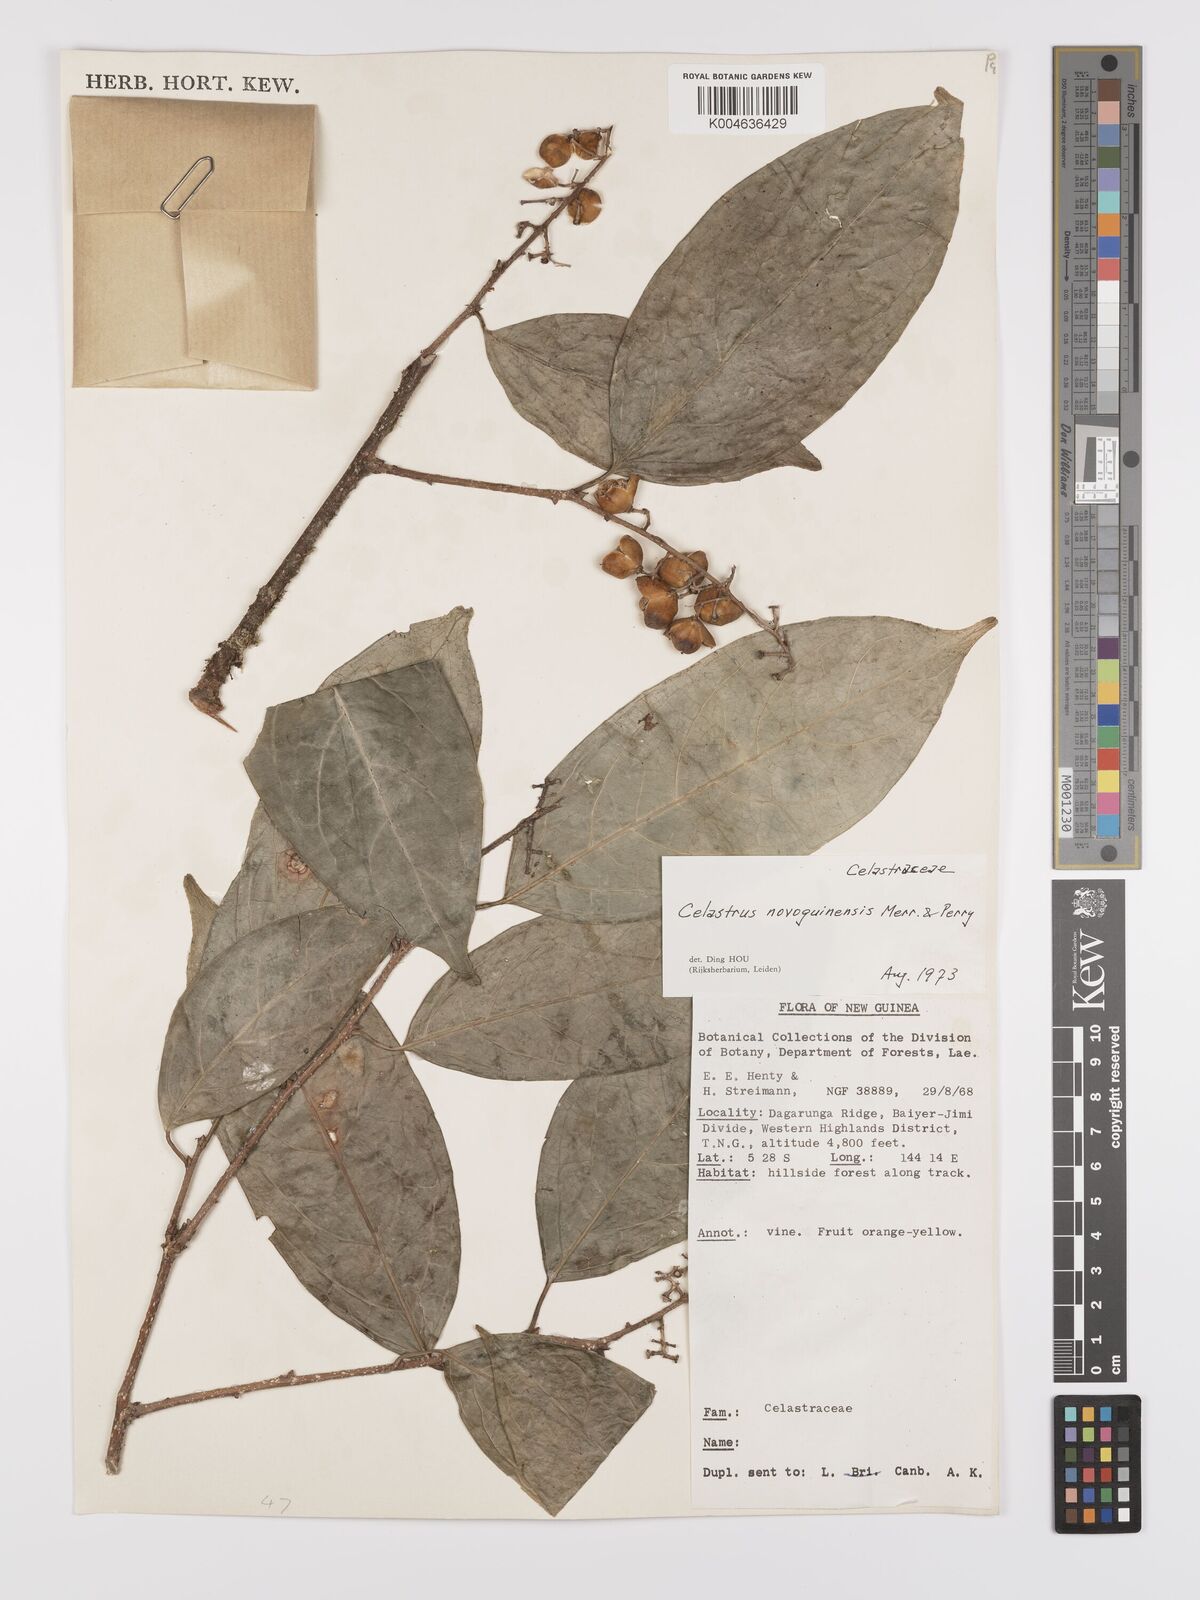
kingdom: Plantae
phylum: Tracheophyta
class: Magnoliopsida
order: Celastrales
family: Celastraceae
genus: Celastrus
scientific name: Celastrus novoguineensis
